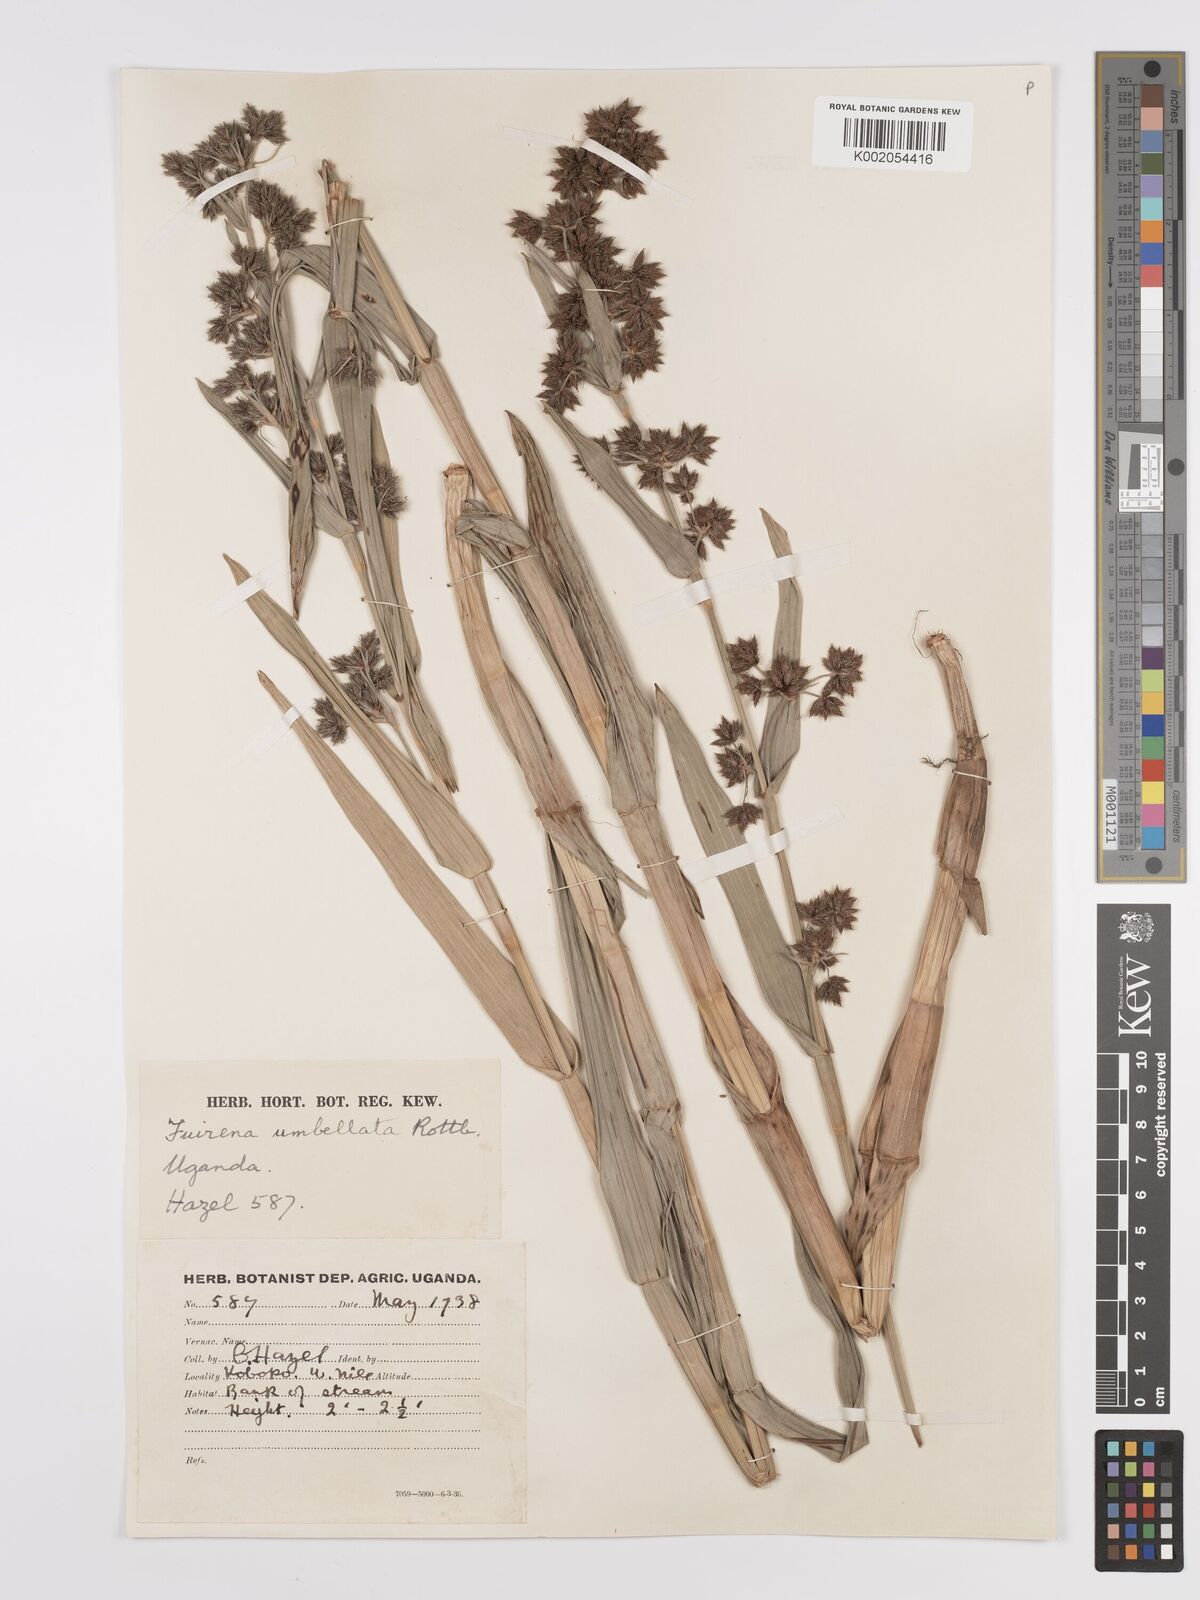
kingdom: Plantae
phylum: Tracheophyta
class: Liliopsida
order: Poales
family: Cyperaceae
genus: Fuirena
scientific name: Fuirena umbellata
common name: Yefen
